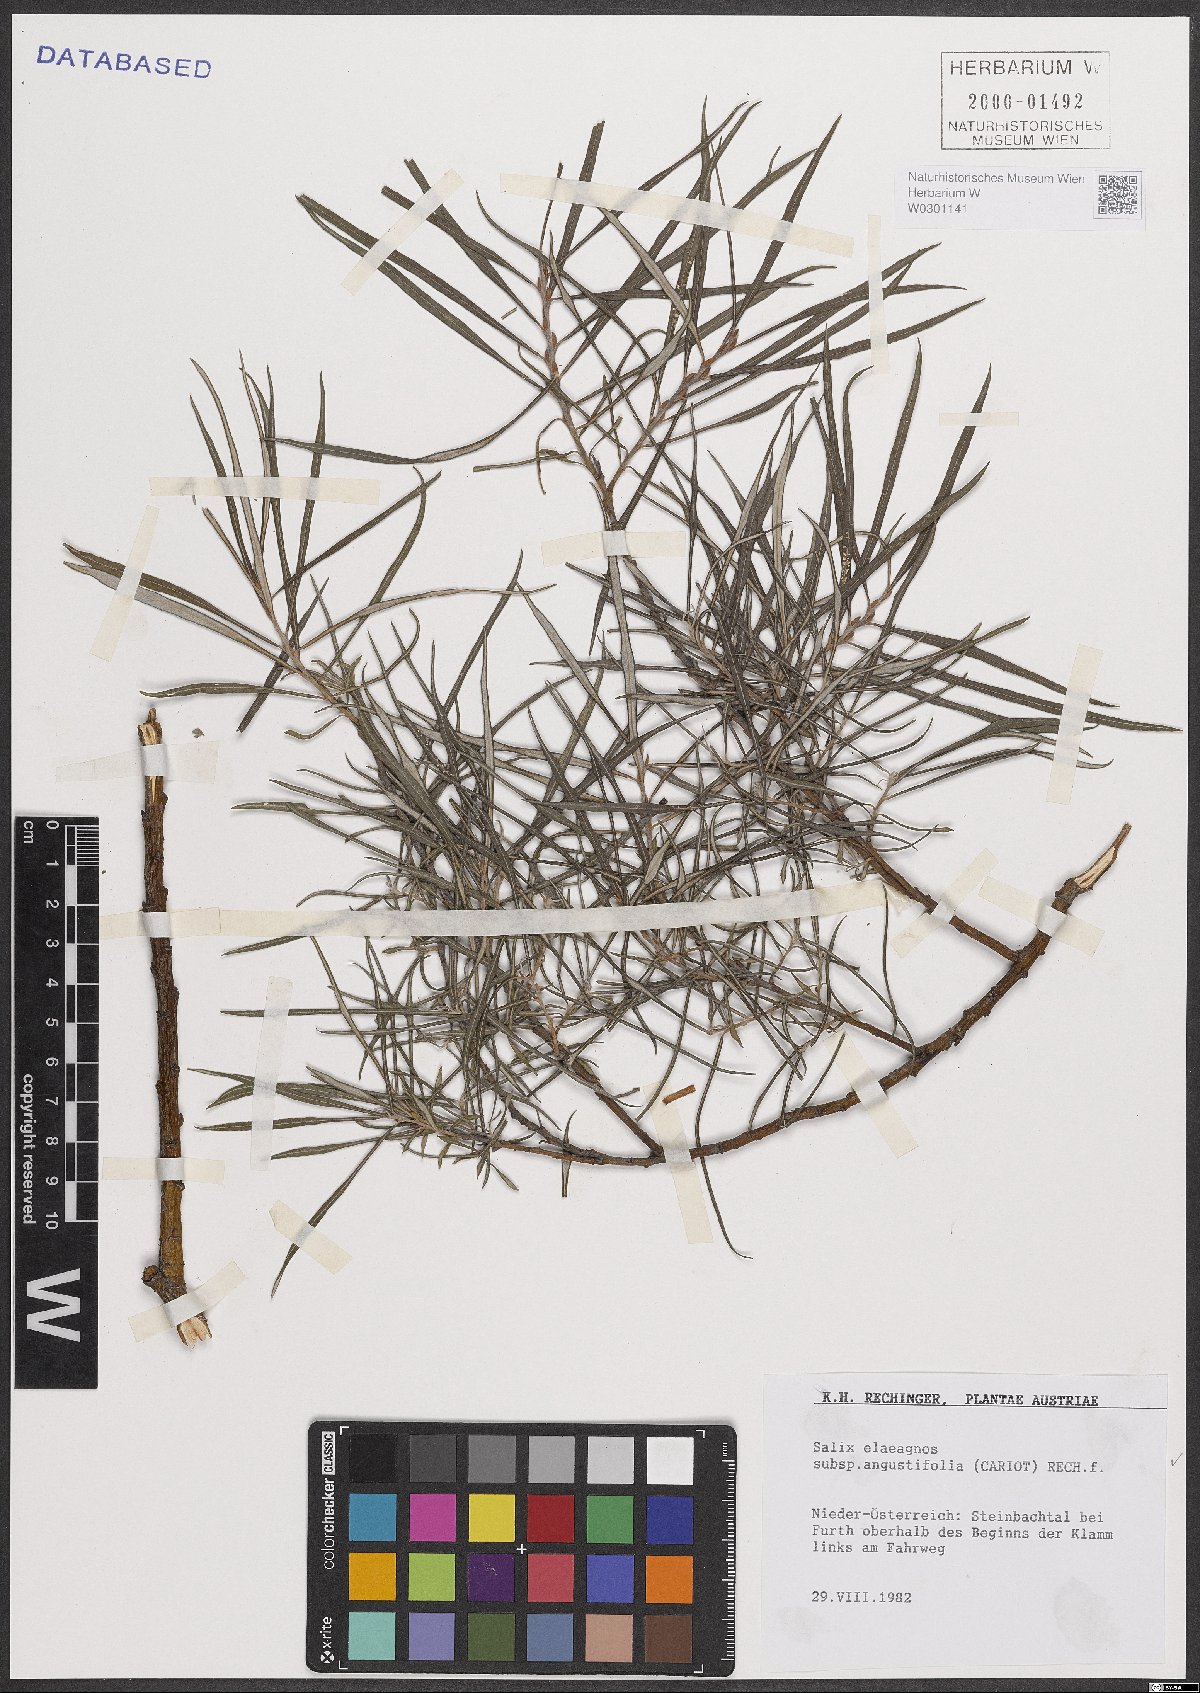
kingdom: Plantae
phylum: Tracheophyta
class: Magnoliopsida
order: Malpighiales
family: Salicaceae
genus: Salix
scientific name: Salix eleagnos
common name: Elaeagnus willow
